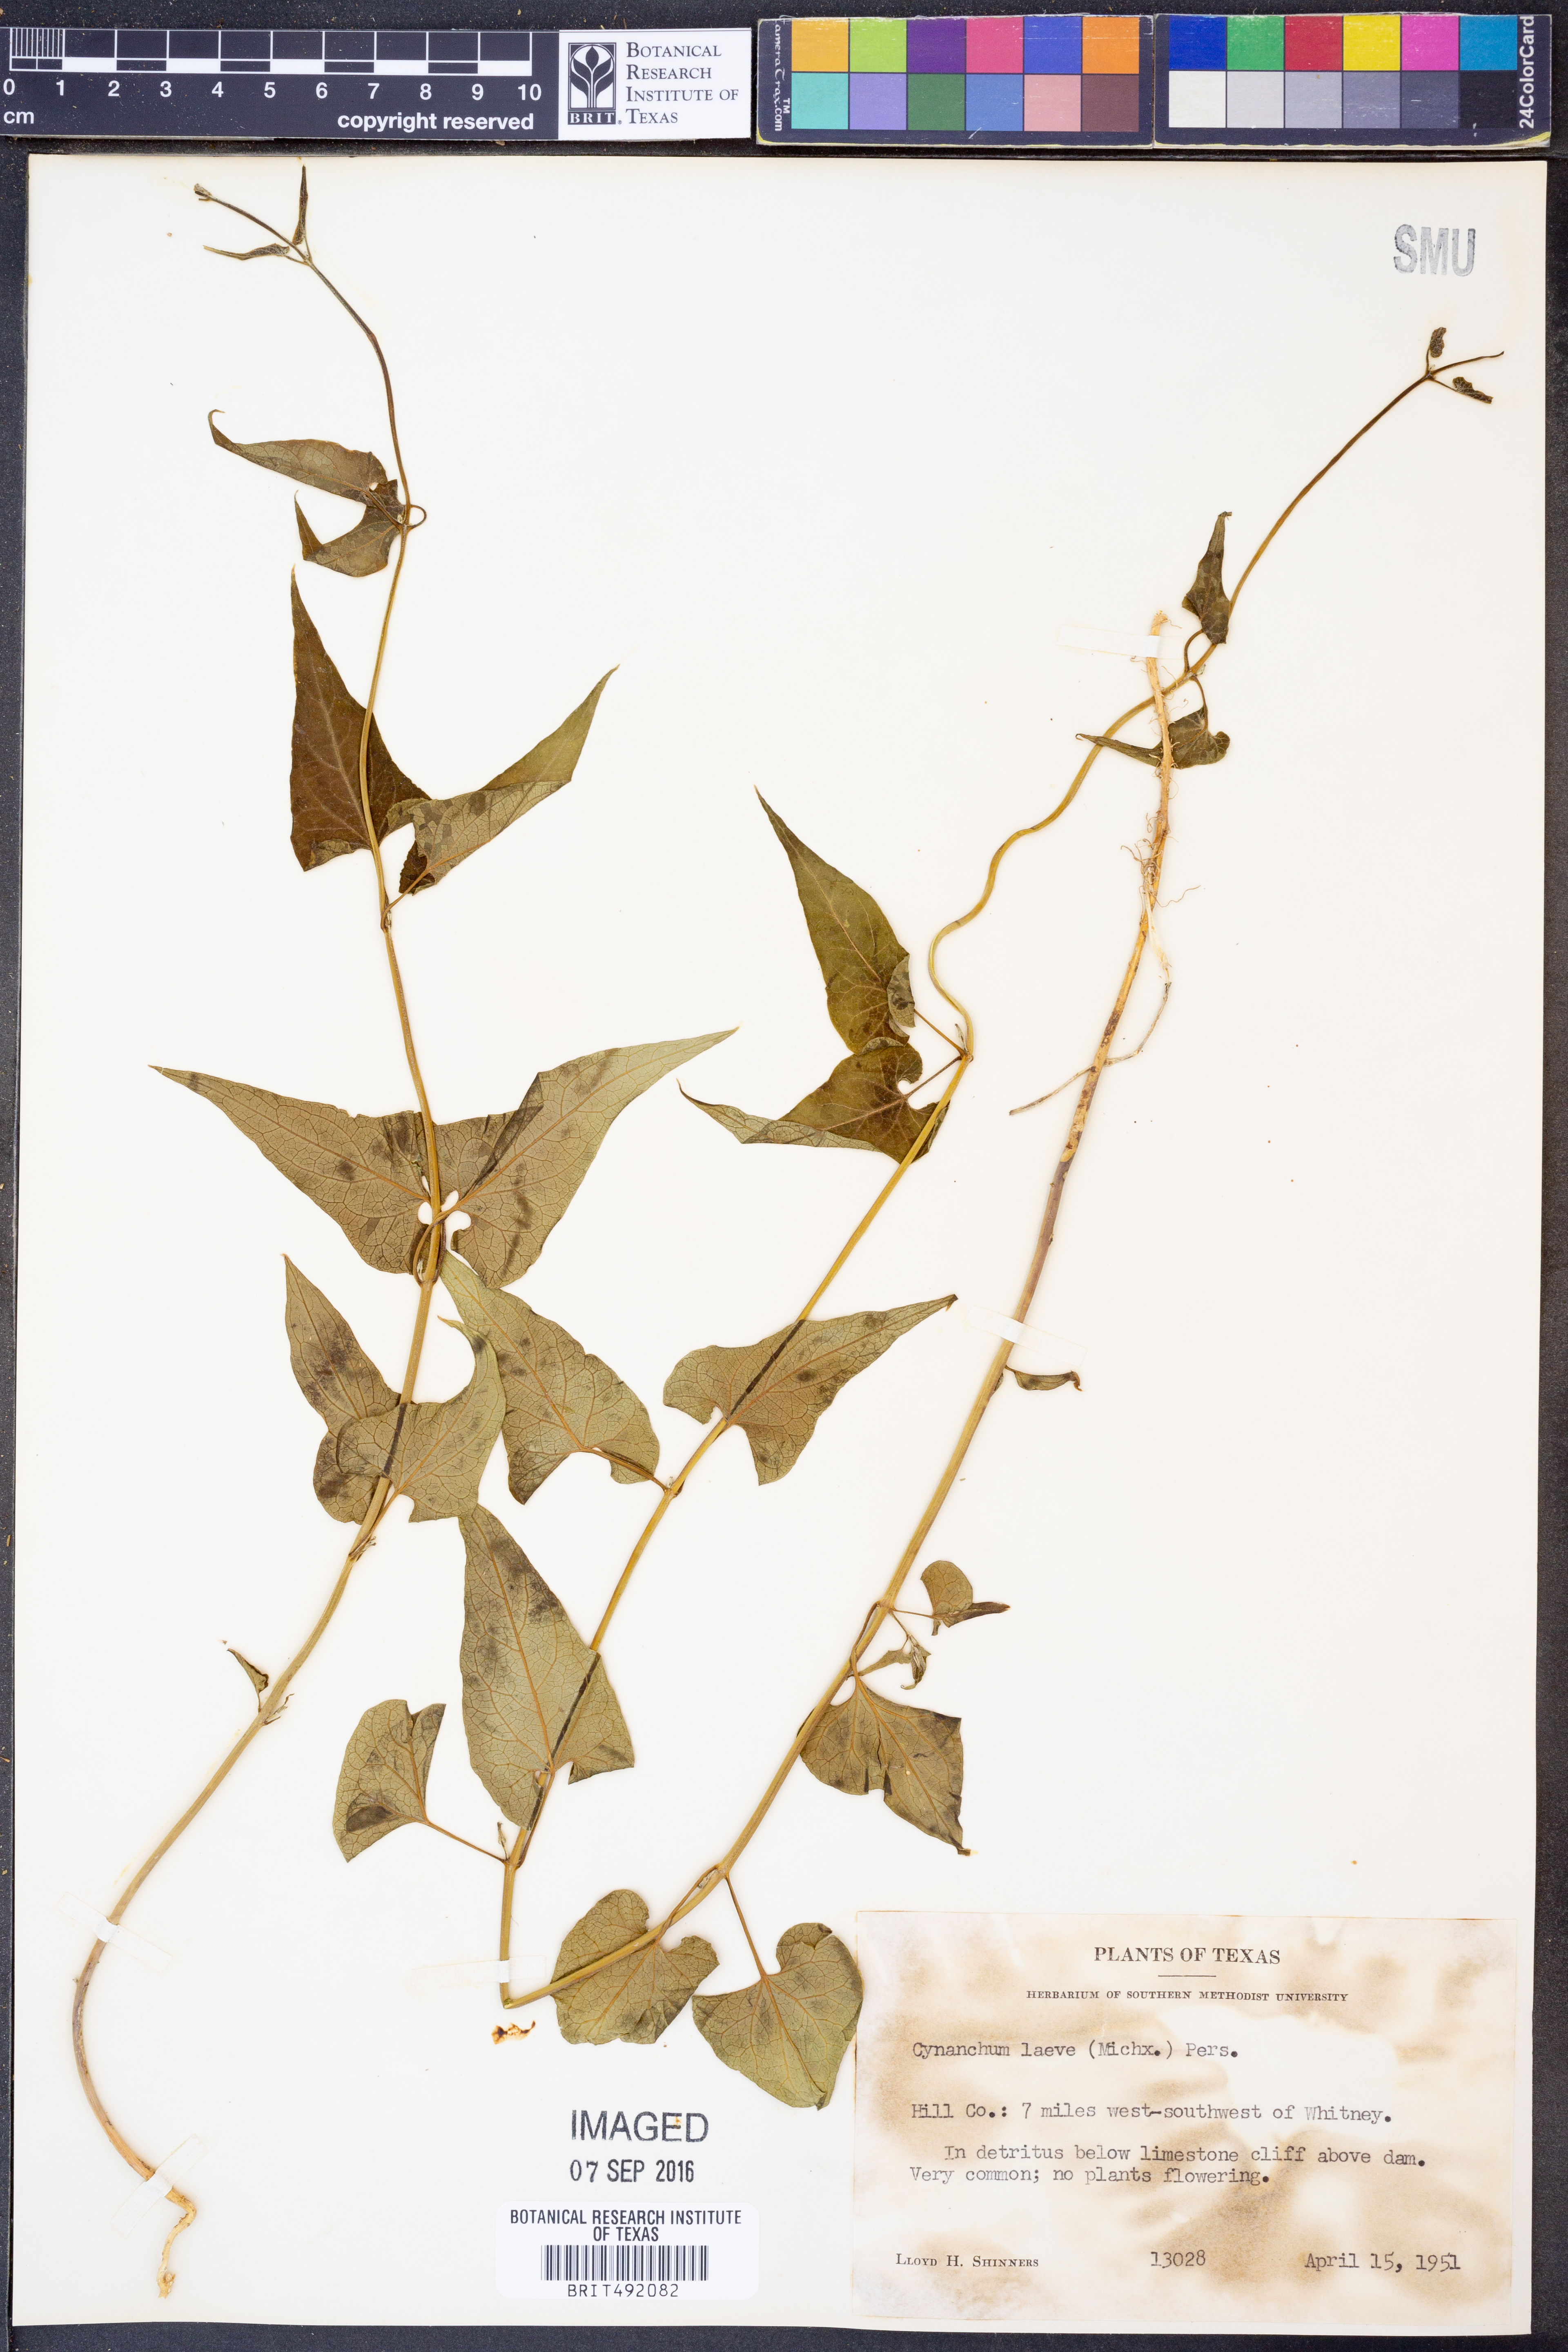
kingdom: Plantae
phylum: Tracheophyta
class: Magnoliopsida
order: Gentianales
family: Apocynaceae
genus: Cynanchum
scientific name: Cynanchum laeve
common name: Sandvine
